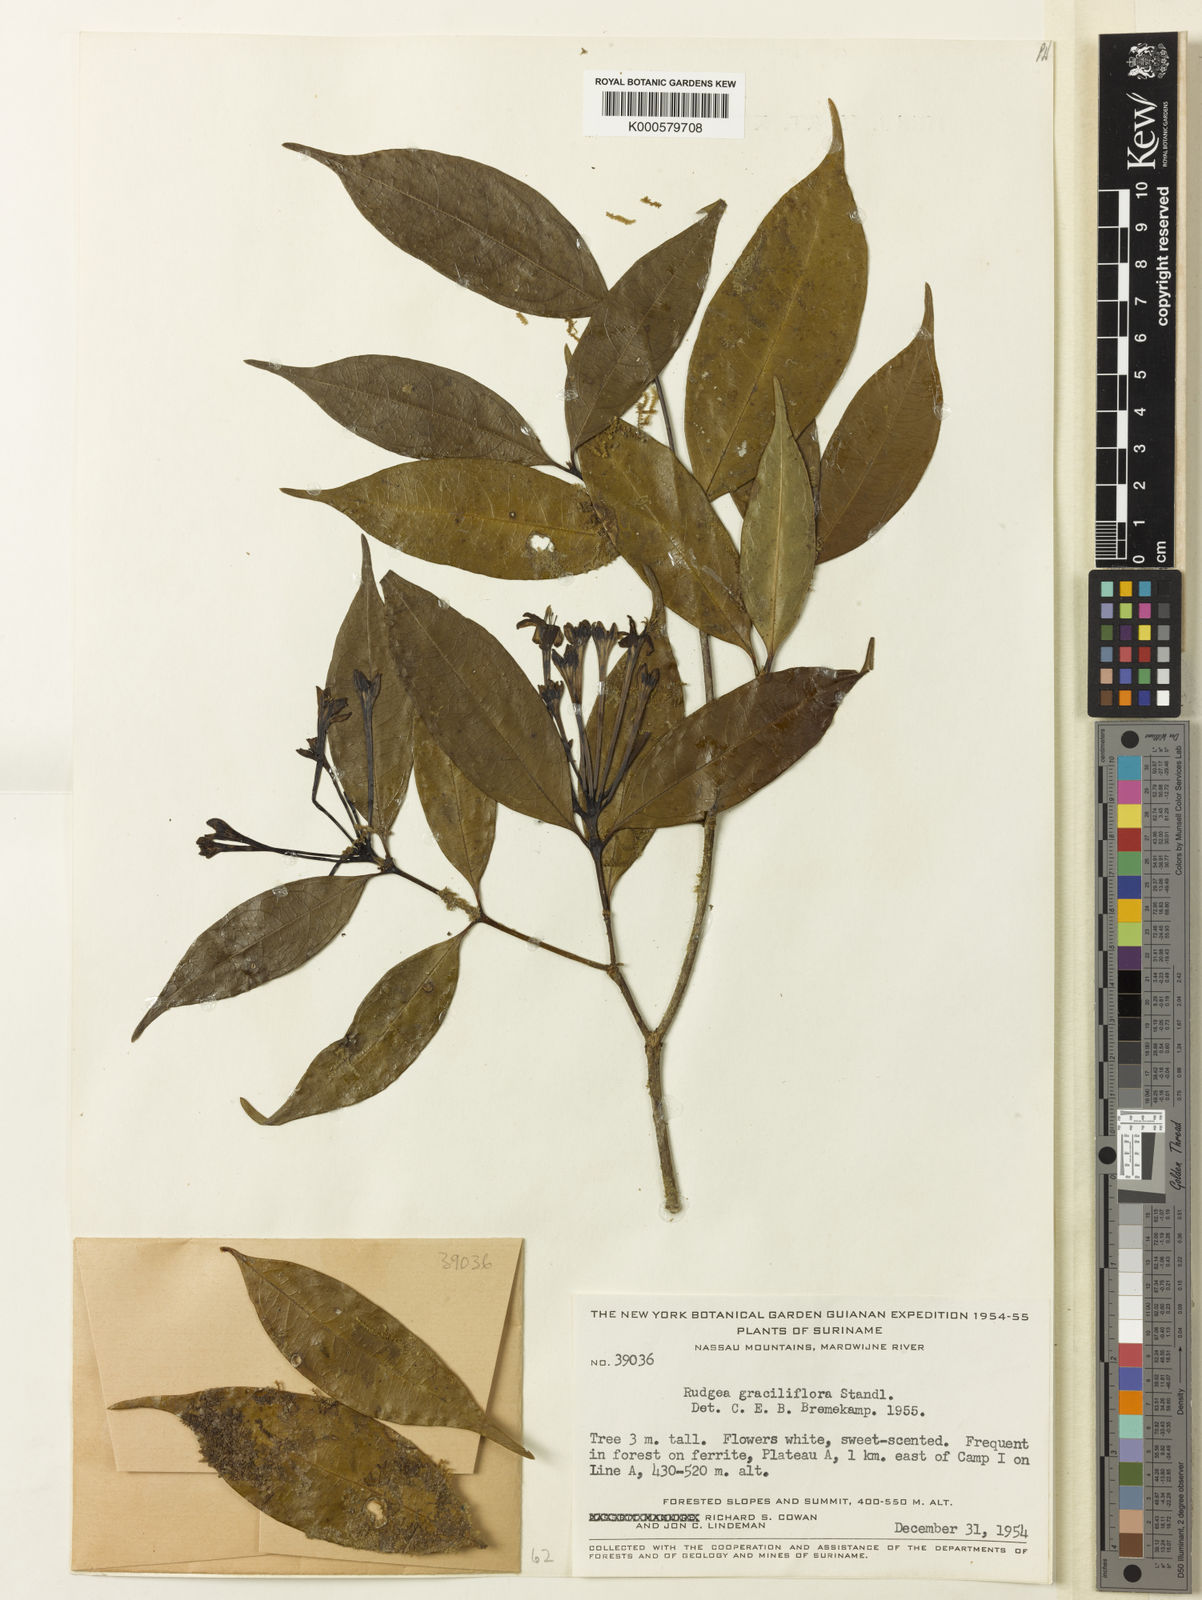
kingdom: Plantae
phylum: Tracheophyta
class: Magnoliopsida
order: Gentianales
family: Rubiaceae
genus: Rudgea
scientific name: Rudgea graciliflora
